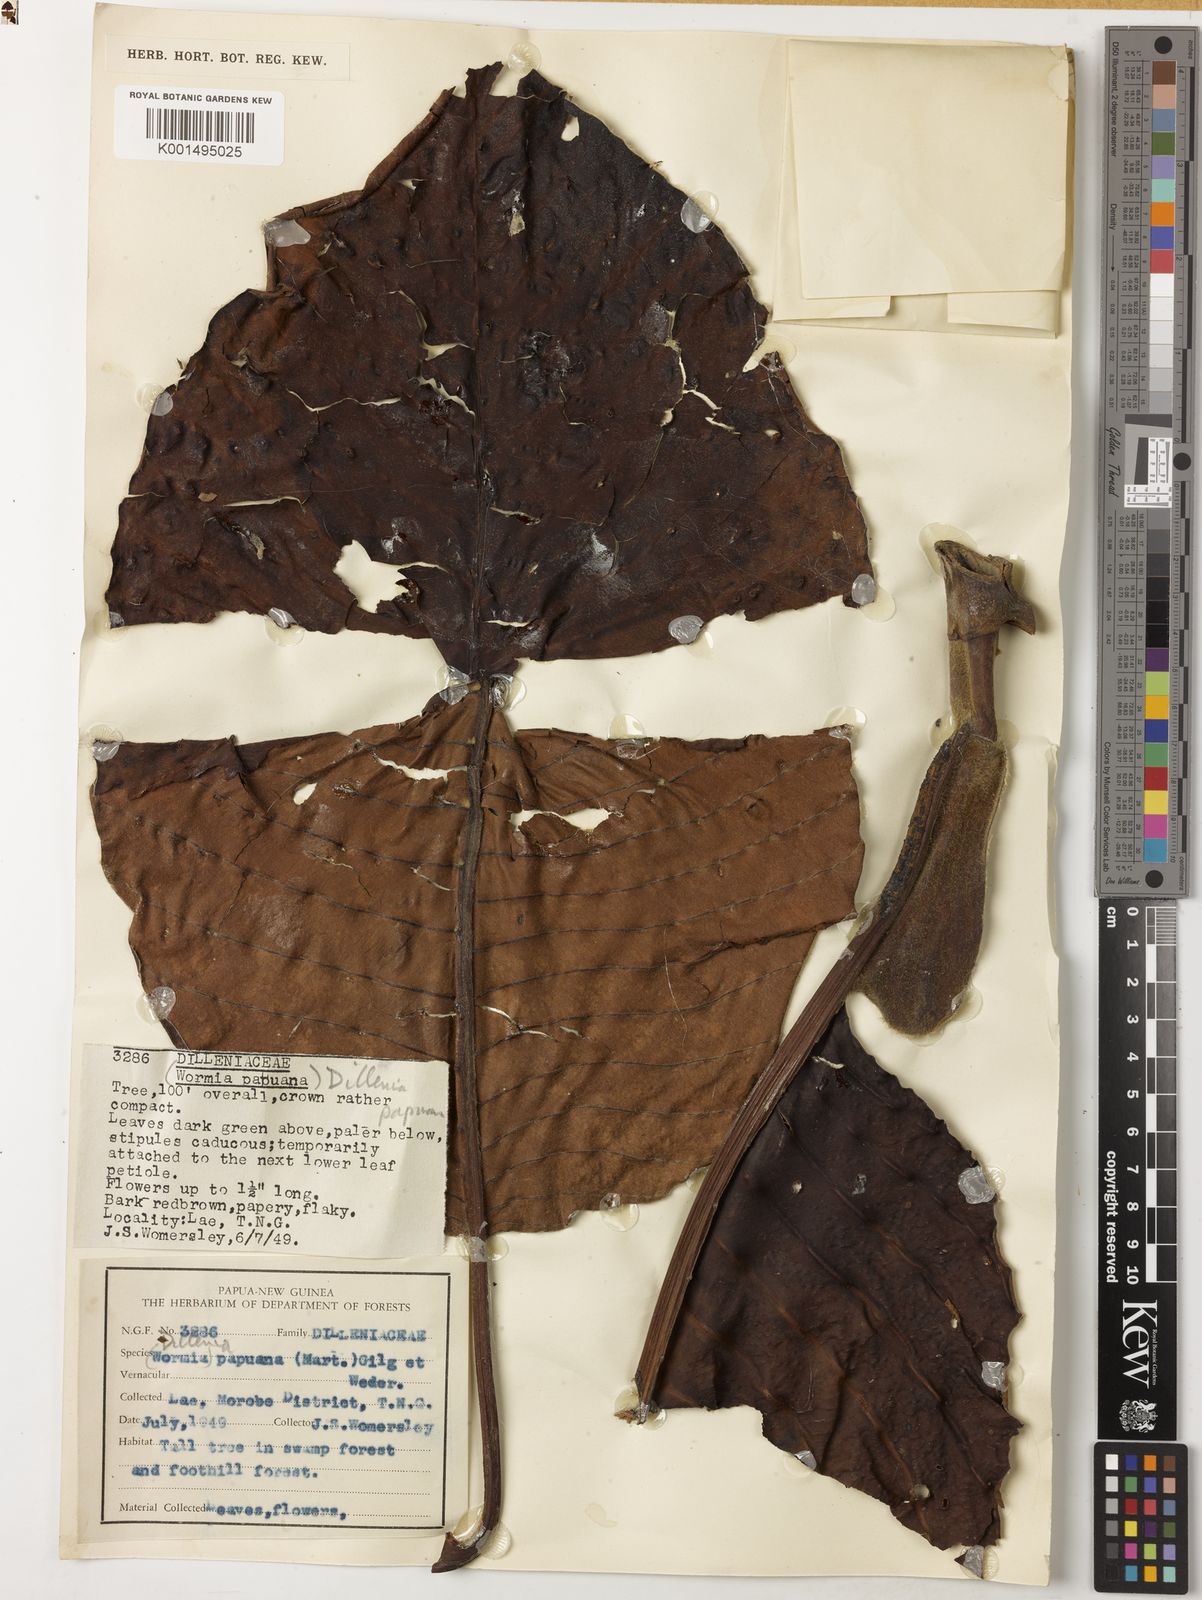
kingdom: Plantae
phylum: Tracheophyta
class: Magnoliopsida
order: Dilleniales
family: Dilleniaceae
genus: Dillenia
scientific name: Dillenia papuana
